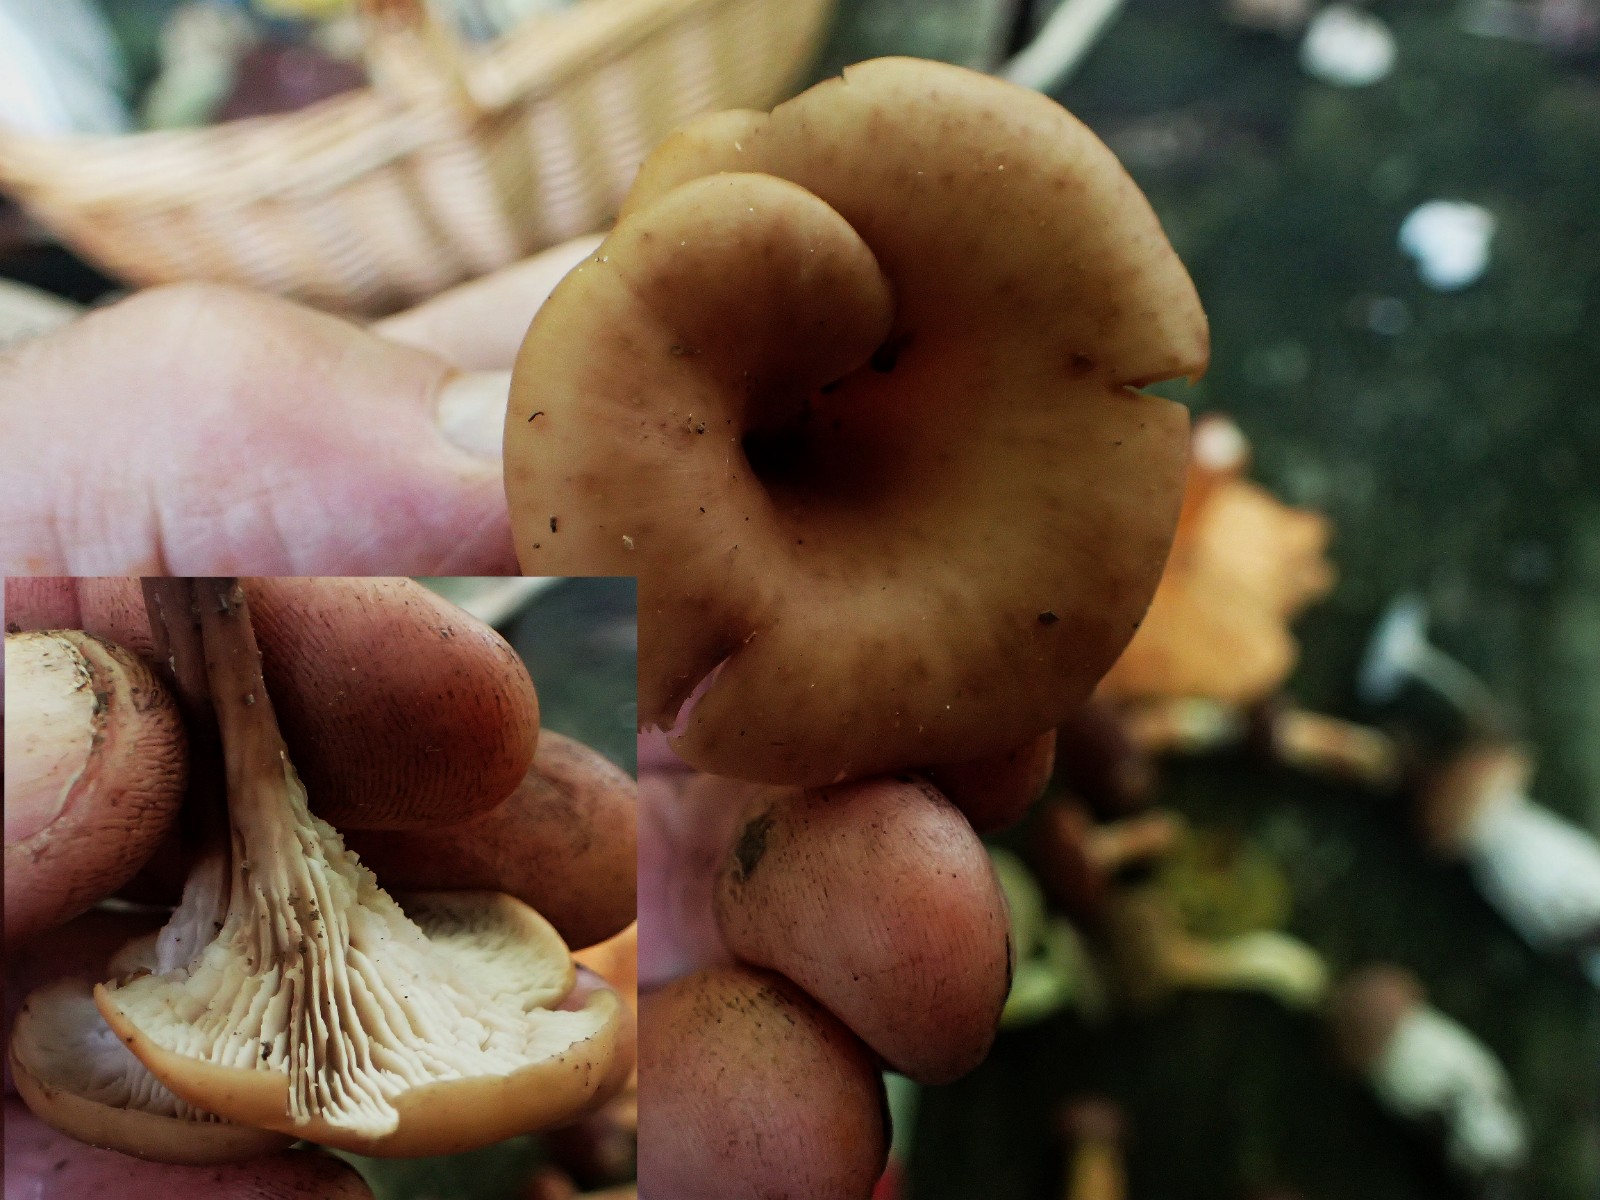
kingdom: Fungi
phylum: Basidiomycota
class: Agaricomycetes
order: Russulales
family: Auriscalpiaceae
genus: Lentinellus
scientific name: Lentinellus cochleatus
